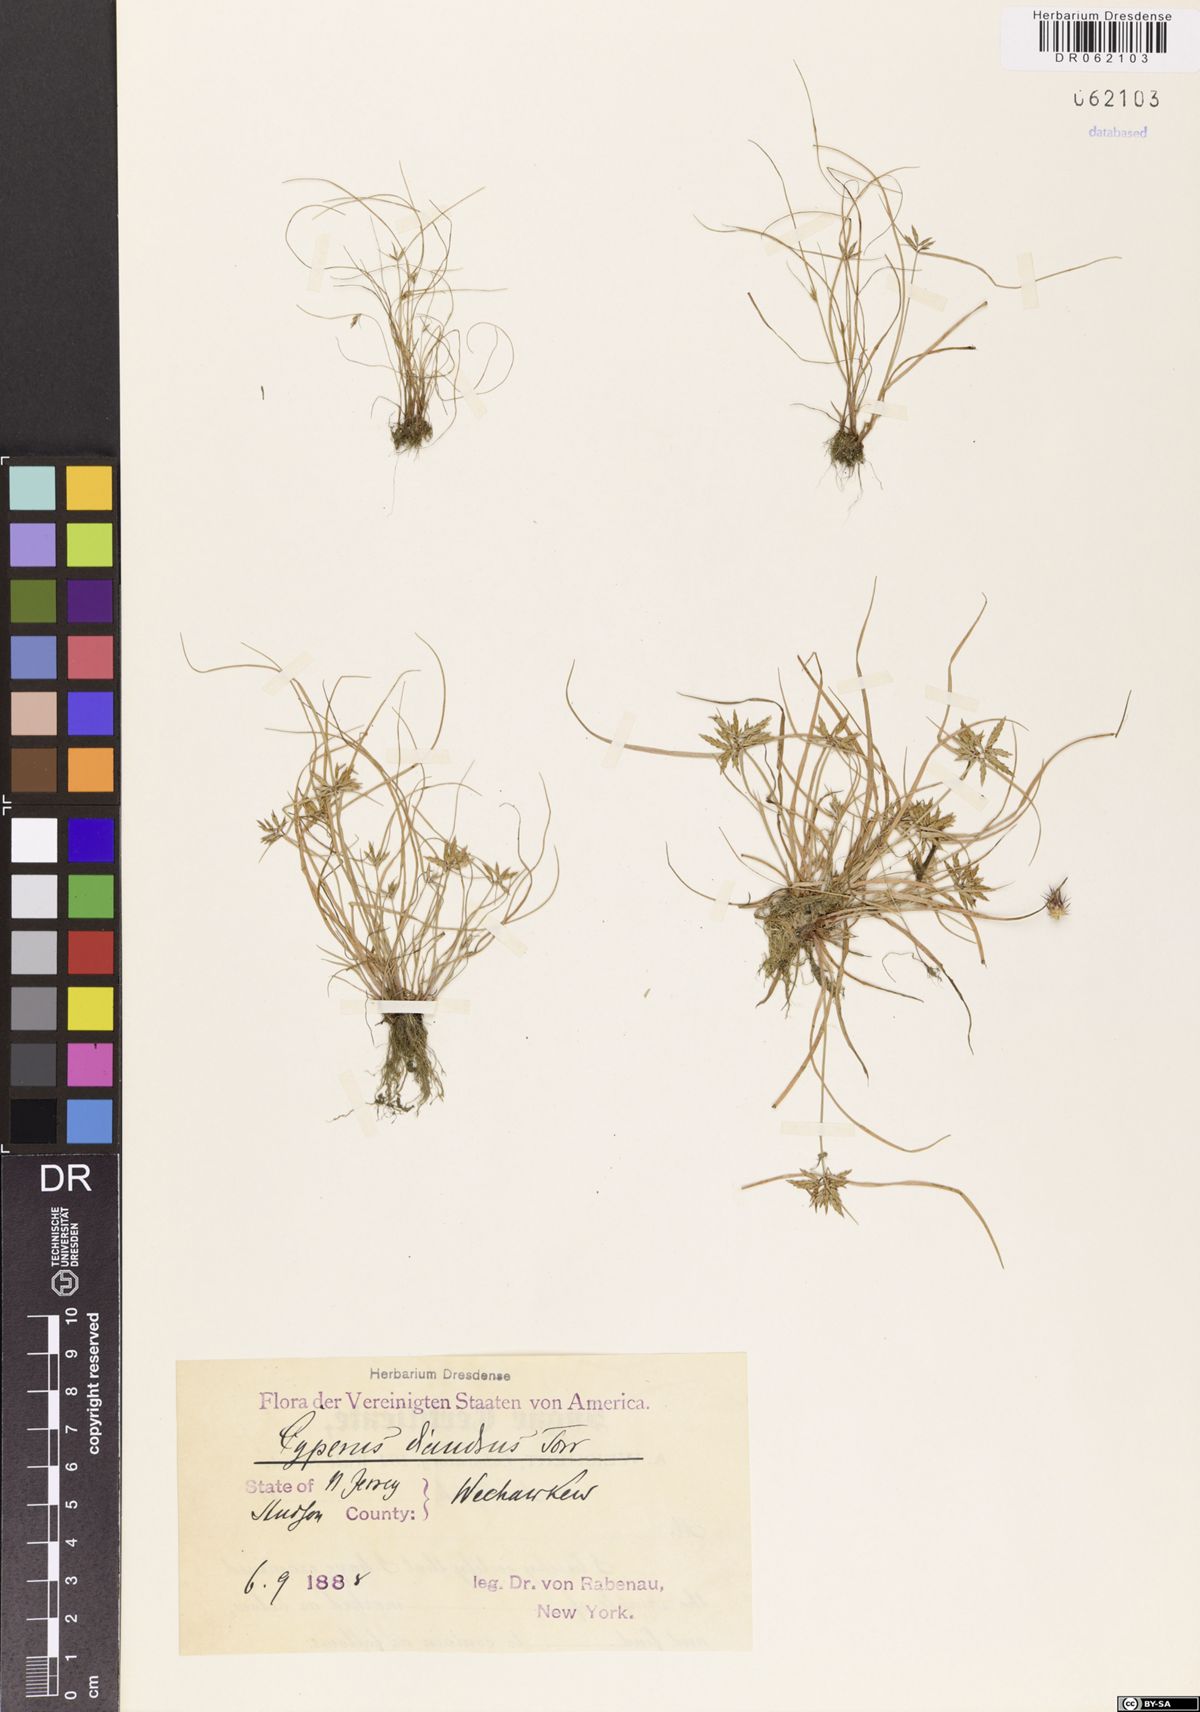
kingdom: Plantae
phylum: Tracheophyta
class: Liliopsida
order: Poales
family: Cyperaceae
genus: Cyperus
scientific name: Cyperus diandrus
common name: Low cyperus
